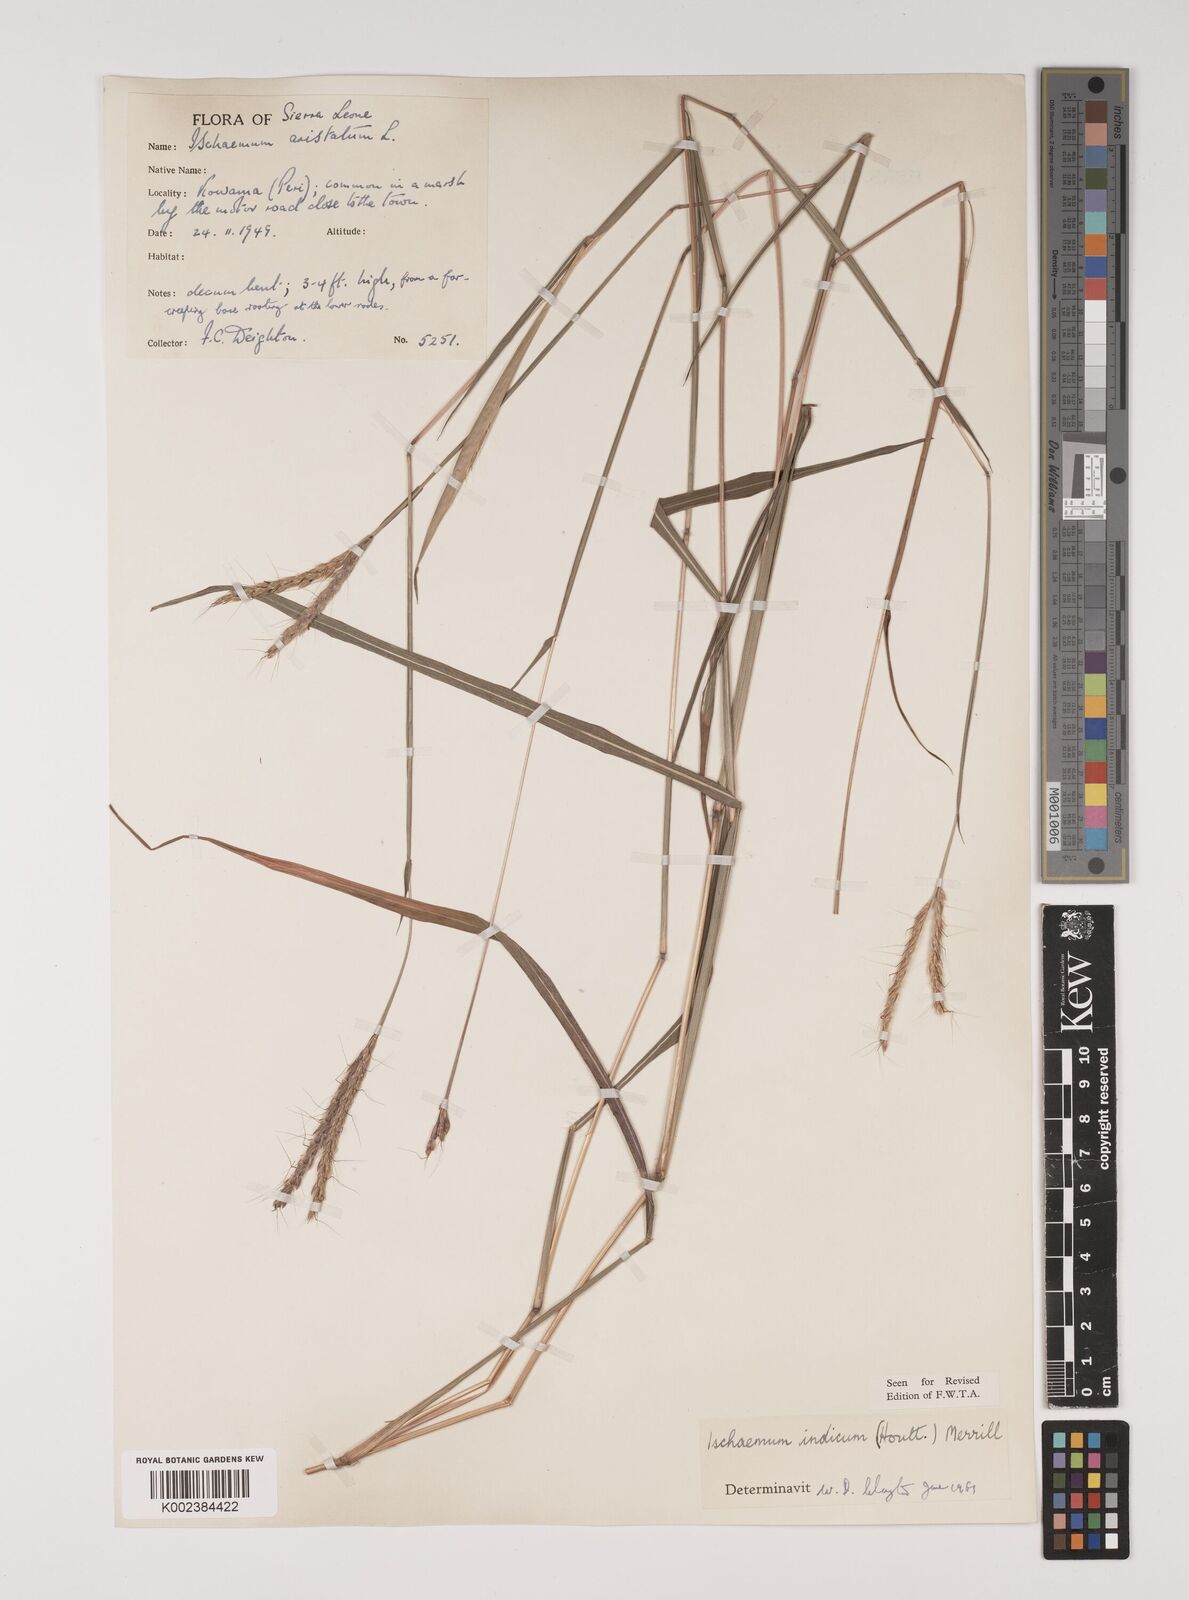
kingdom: Plantae
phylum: Tracheophyta
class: Liliopsida
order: Poales
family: Poaceae
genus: Polytrias
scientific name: Polytrias indica
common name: Indian murainagrass
